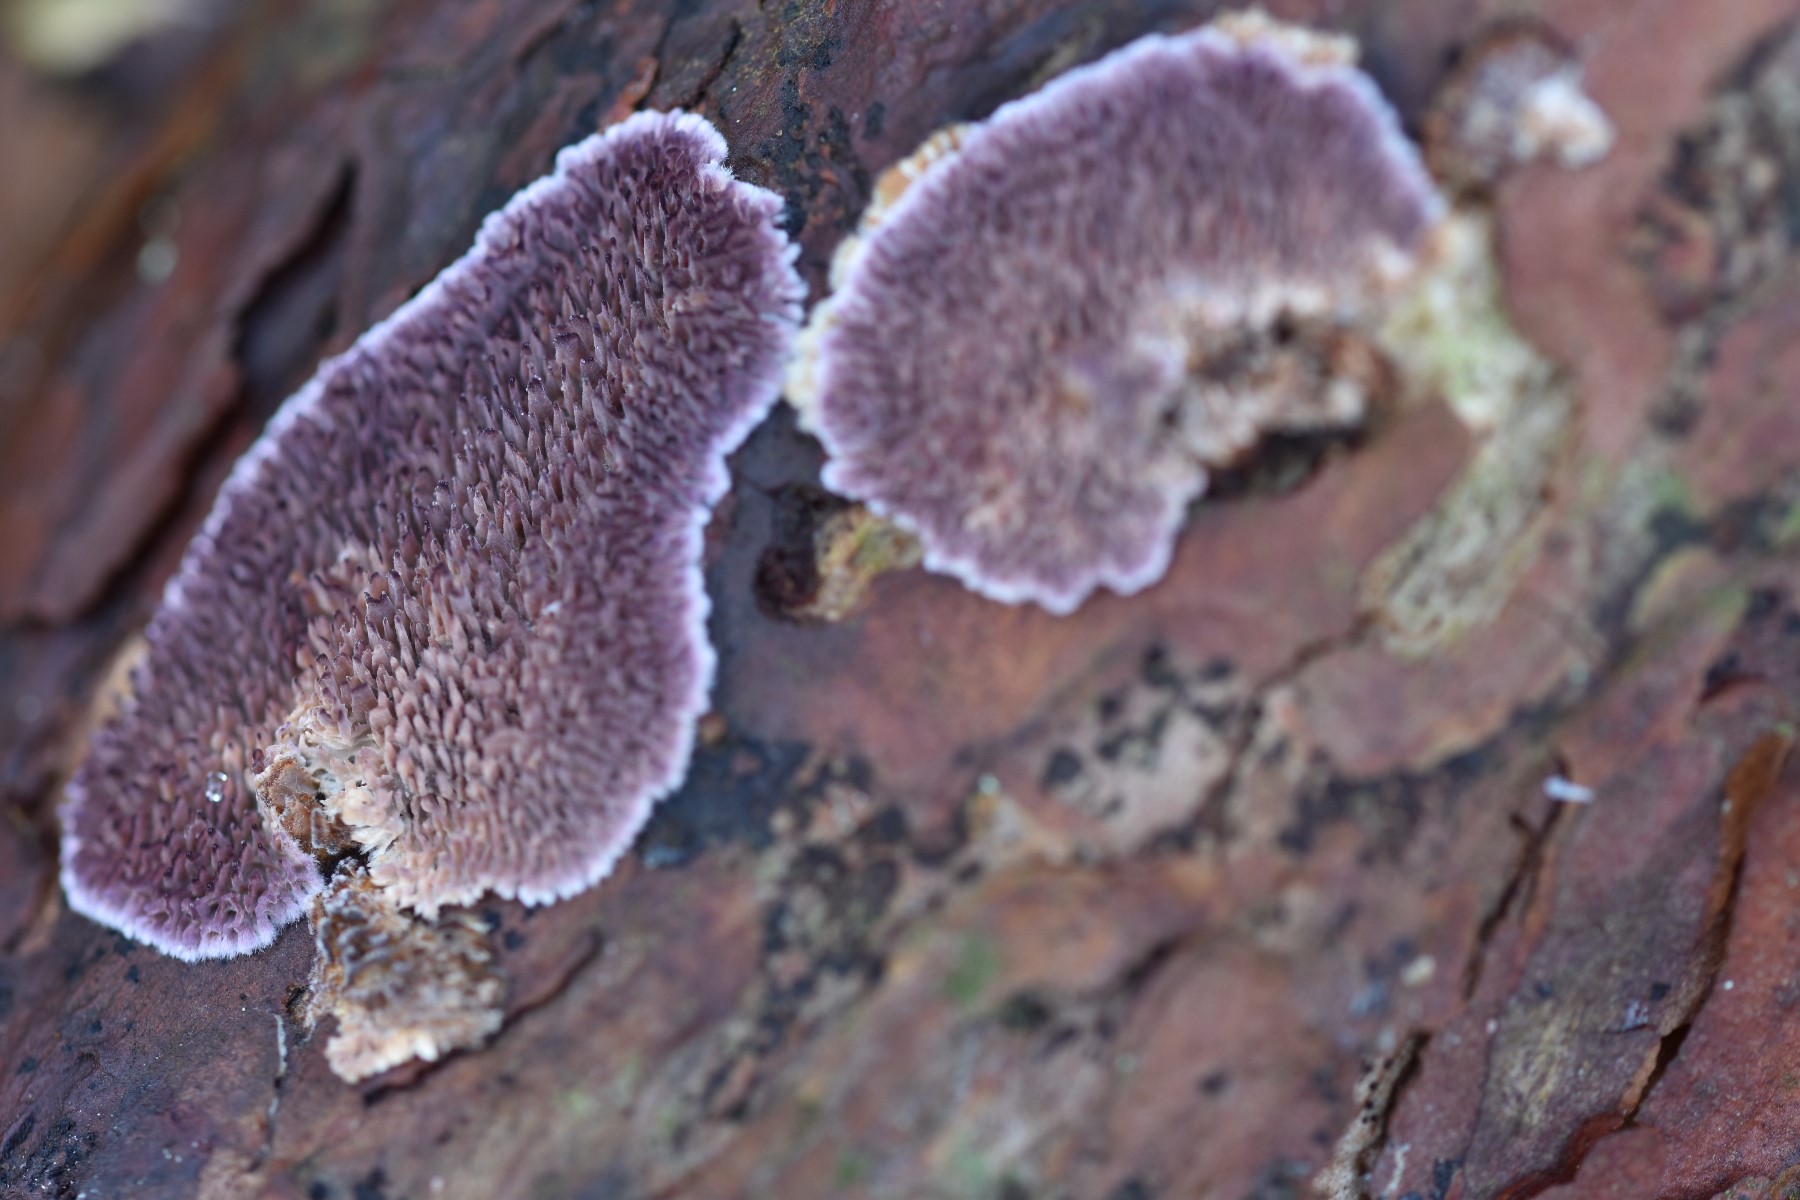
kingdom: Fungi
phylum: Basidiomycota
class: Agaricomycetes
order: Hymenochaetales
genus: Trichaptum
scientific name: Trichaptum fuscoviolaceum
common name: tandet violporesvamp
